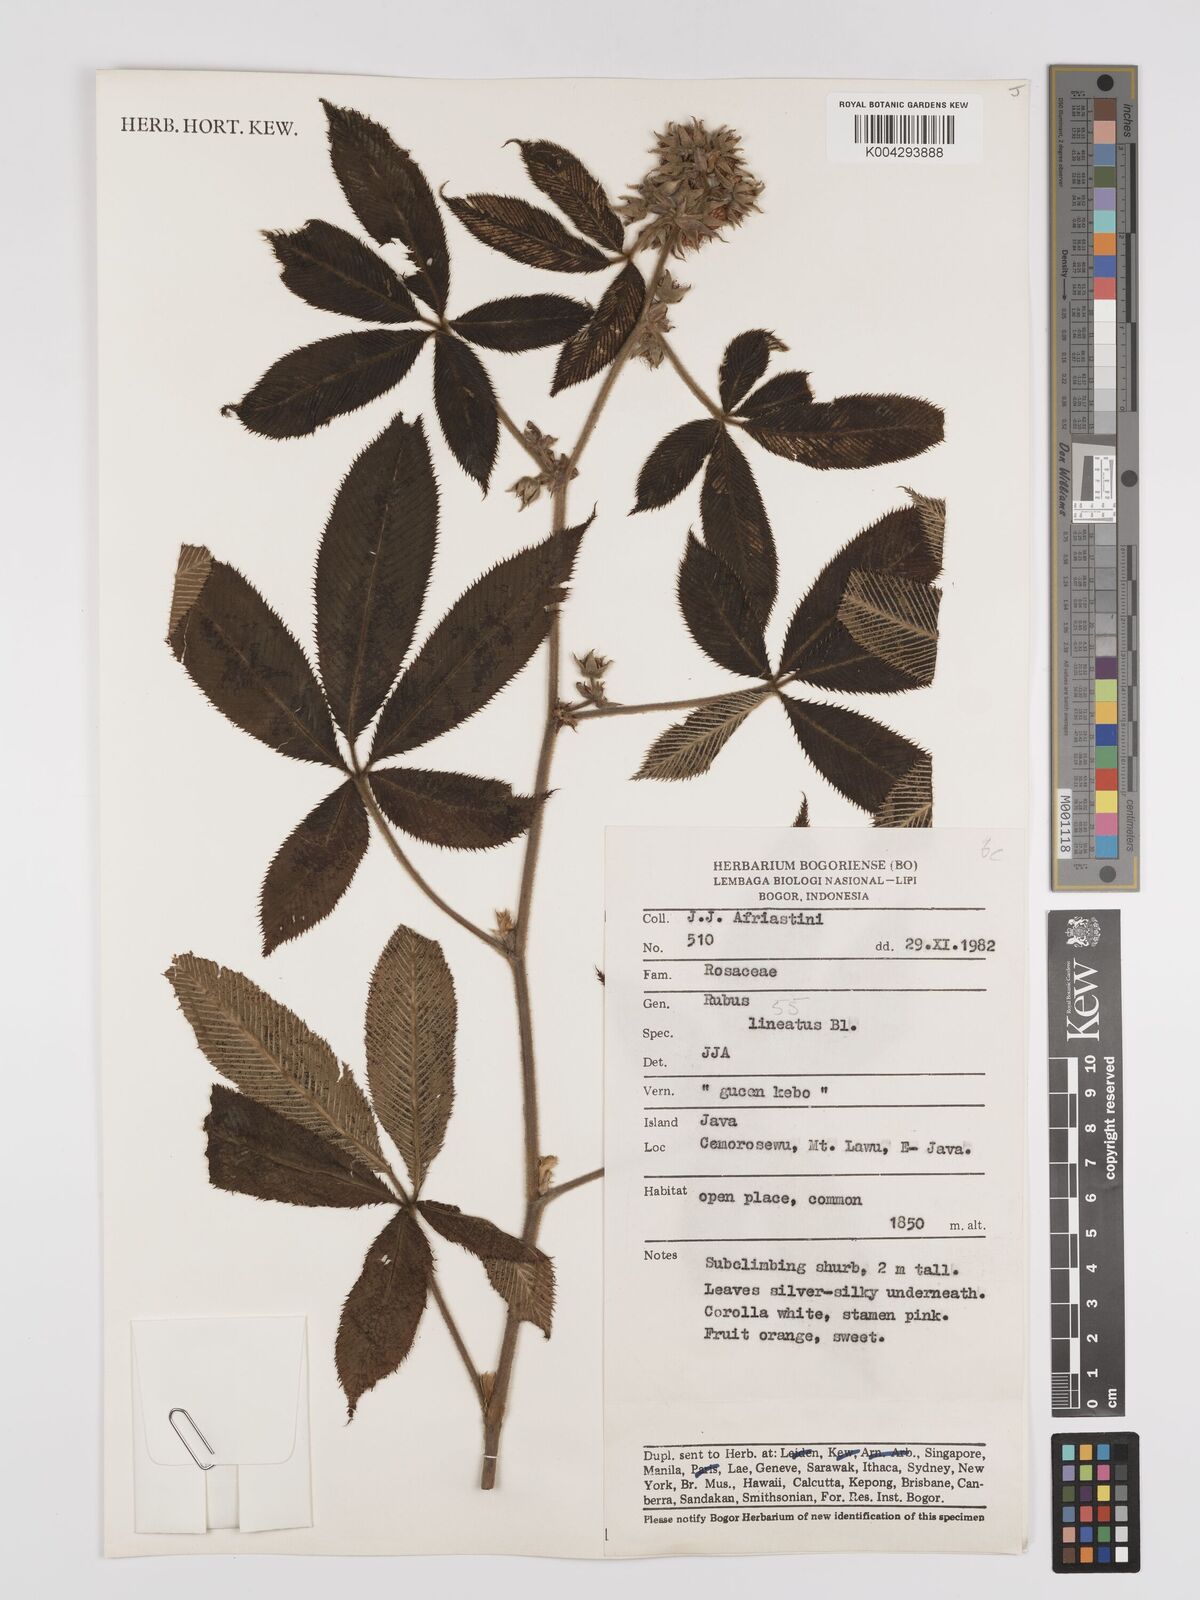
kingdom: Plantae
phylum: Tracheophyta
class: Magnoliopsida
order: Rosales
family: Rosaceae
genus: Rubus
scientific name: Rubus lineatus
